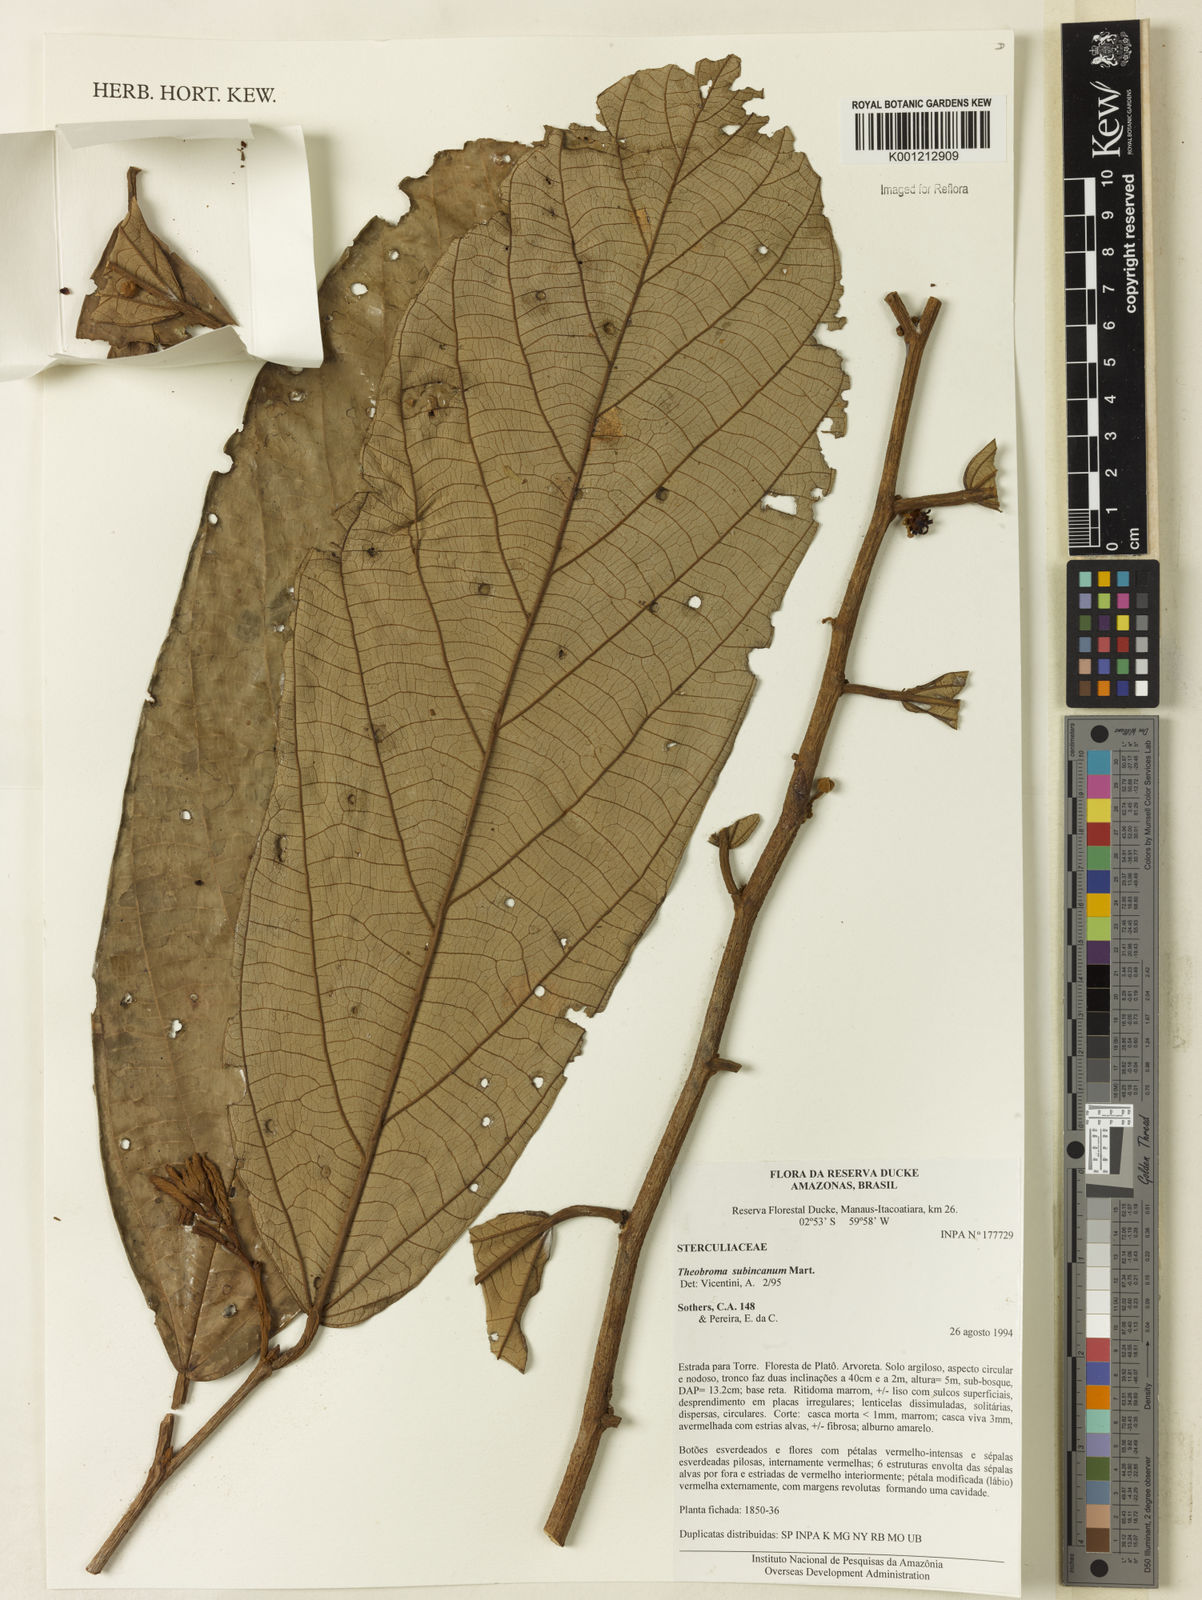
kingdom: Plantae
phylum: Tracheophyta
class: Magnoliopsida
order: Malvales
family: Malvaceae
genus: Theobroma
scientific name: Theobroma subincanum
